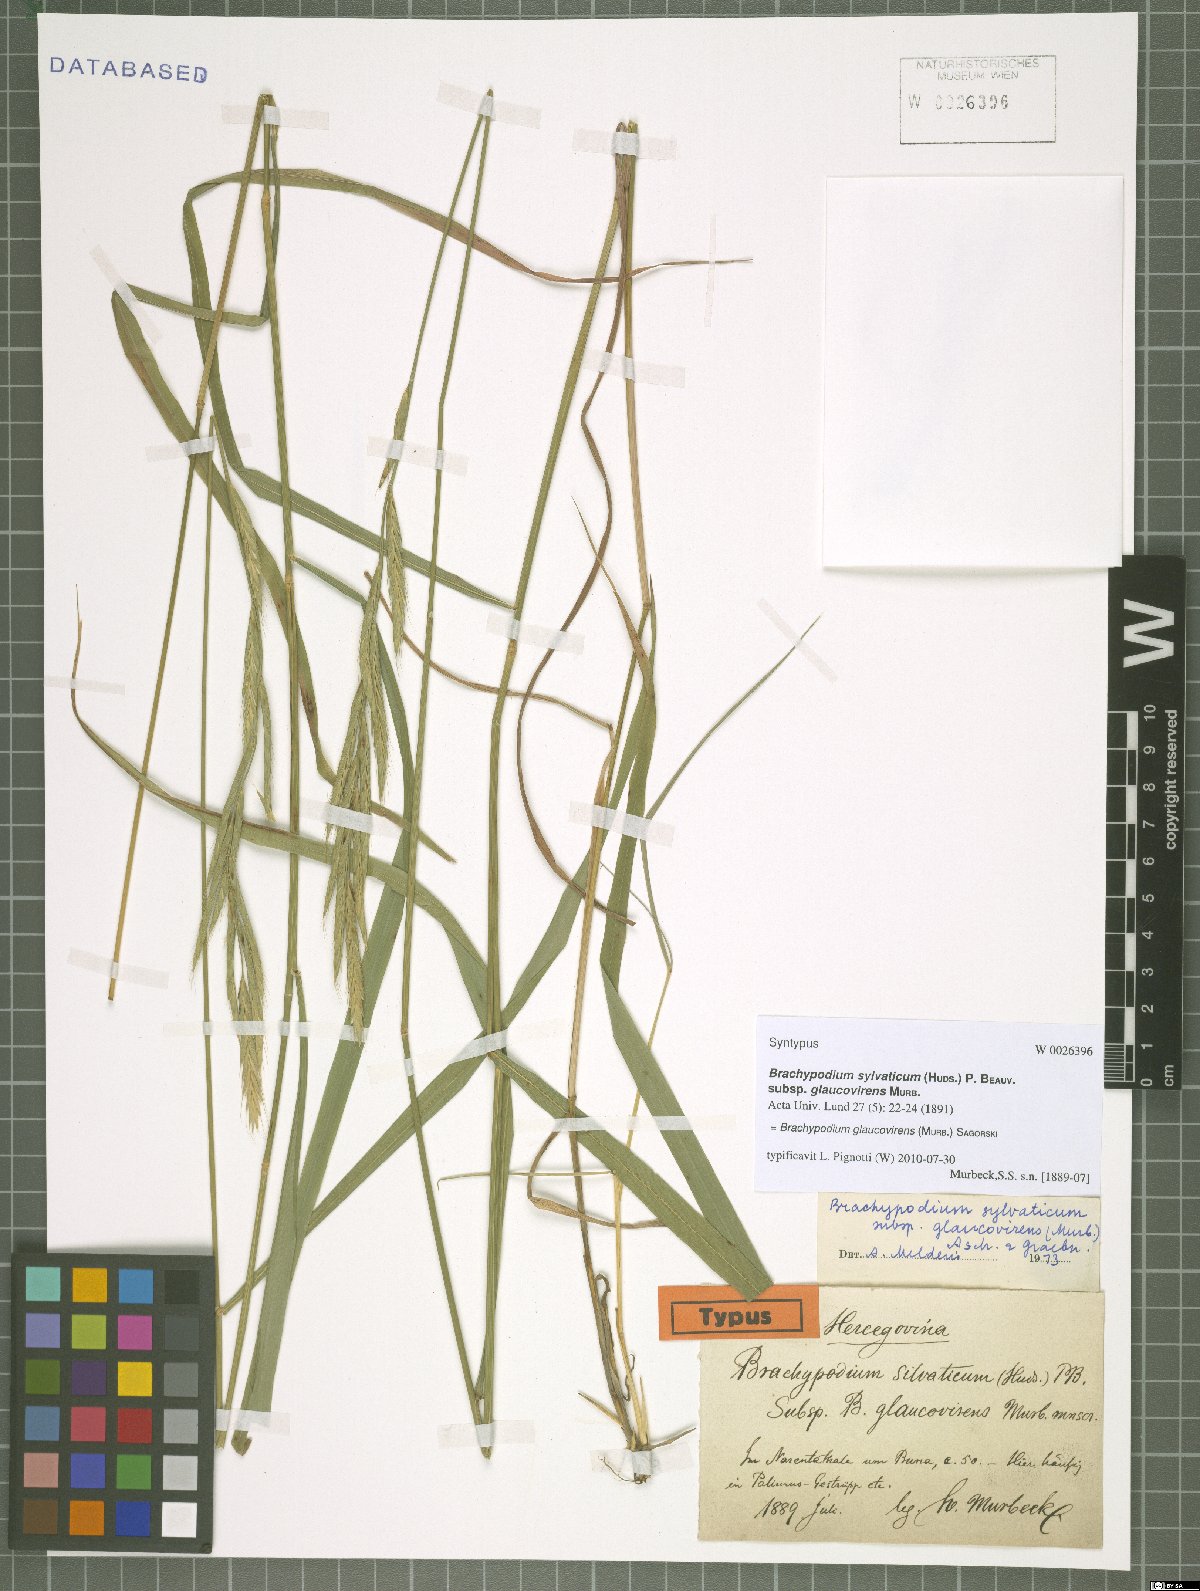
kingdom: Plantae
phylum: Tracheophyta
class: Liliopsida
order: Poales
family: Poaceae
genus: Brachypodium
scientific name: Brachypodium glaucovirens
